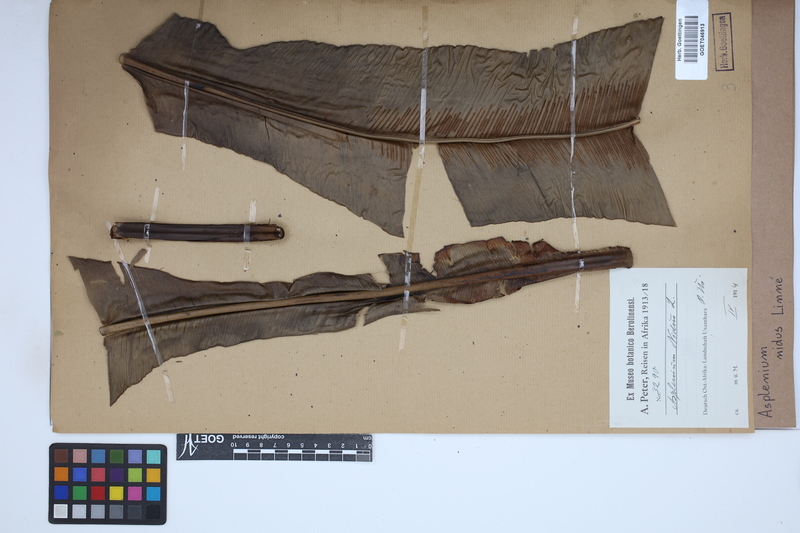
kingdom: Plantae
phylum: Tracheophyta
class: Polypodiopsida
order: Polypodiales
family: Aspleniaceae
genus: Asplenium
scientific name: Asplenium nidus
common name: Bird's-nest fern
